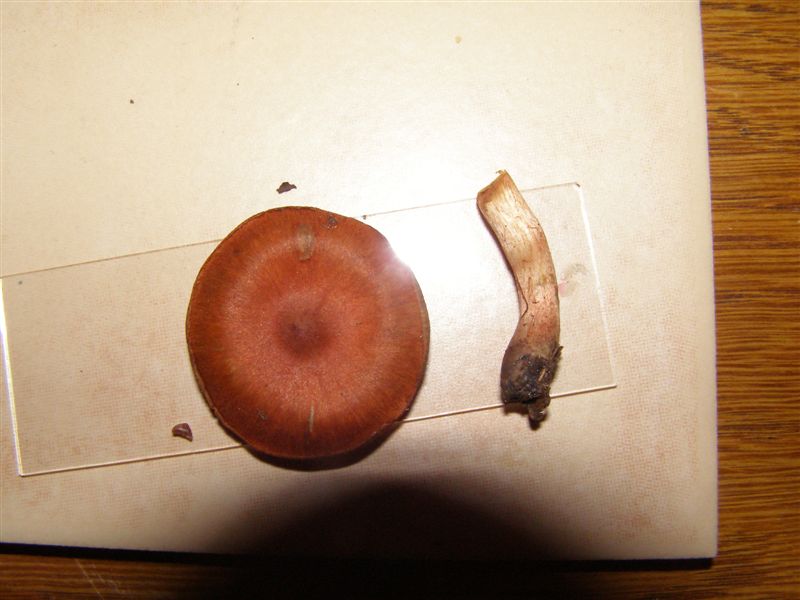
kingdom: Fungi
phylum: Basidiomycota
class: Agaricomycetes
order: Agaricales
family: Cortinariaceae
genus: Cortinarius
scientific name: Cortinarius uliginosus
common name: mose-slørhat
